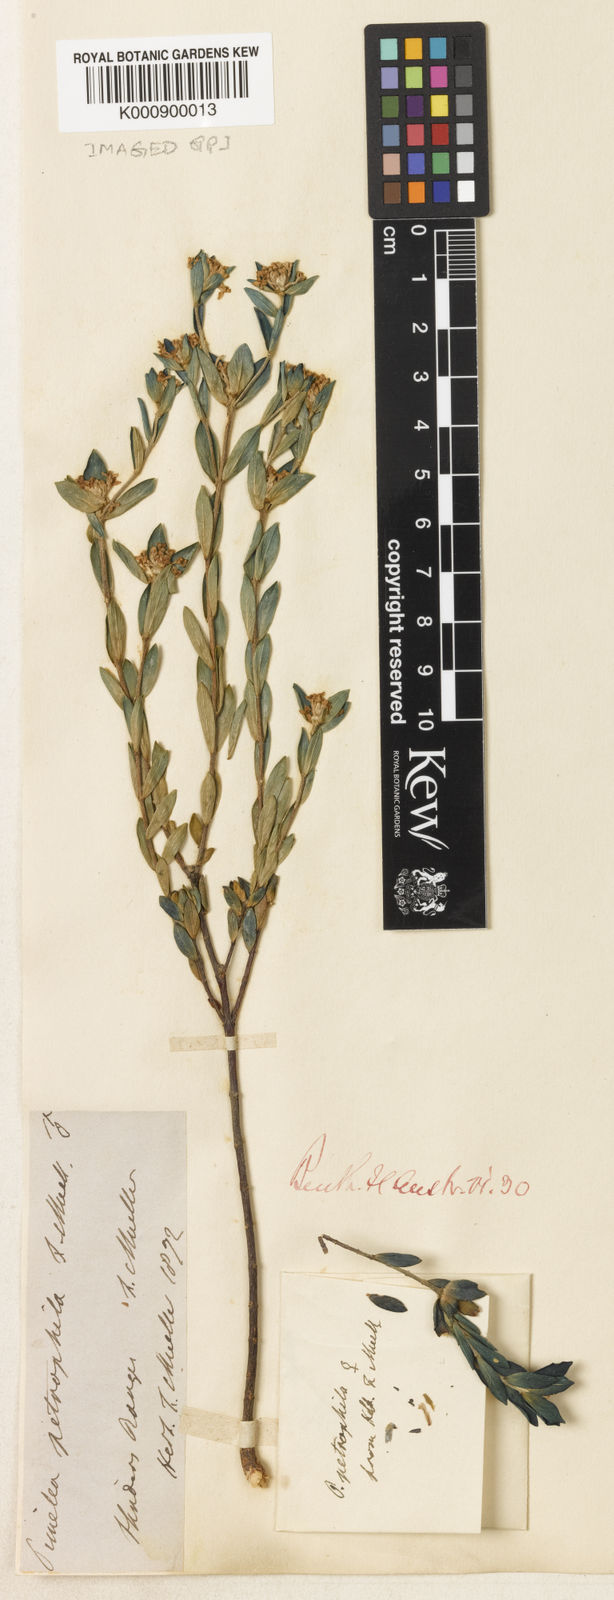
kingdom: Plantae
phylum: Tracheophyta
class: Magnoliopsida
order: Malvales
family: Thymelaeaceae
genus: Pimelea
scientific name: Pimelea petrophila
